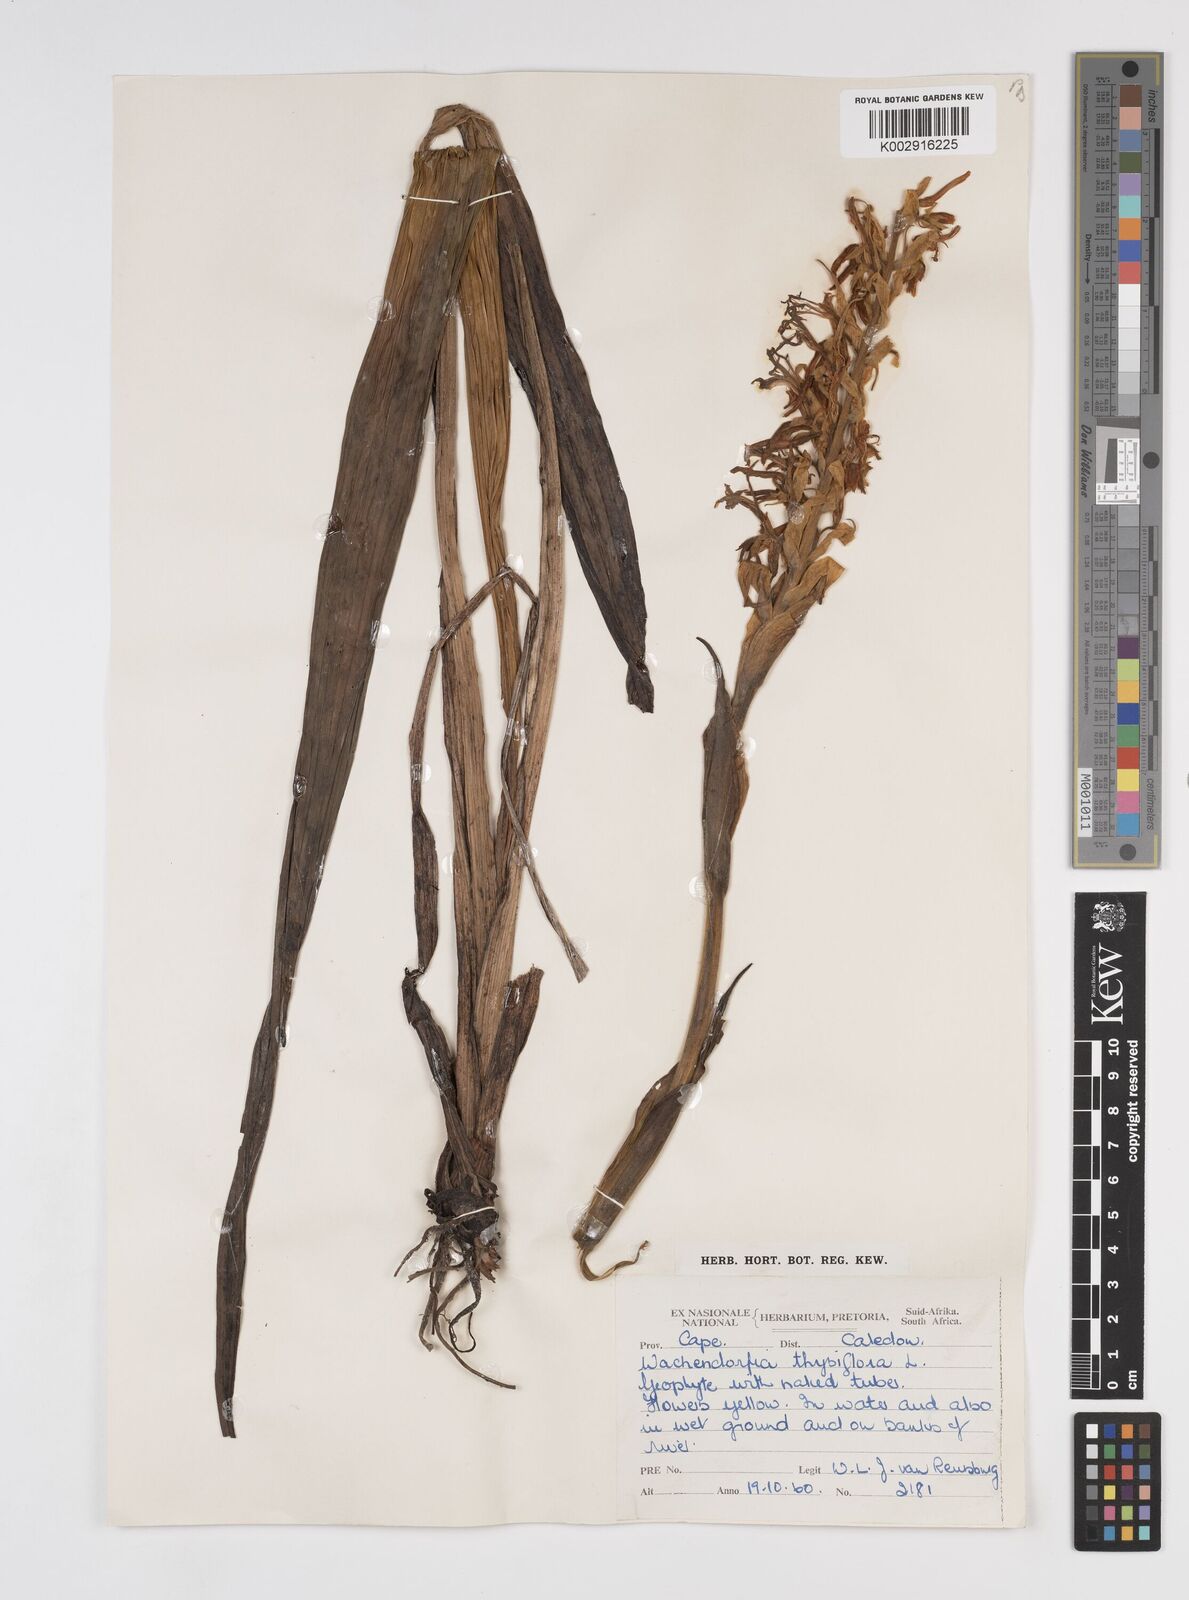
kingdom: Plantae
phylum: Tracheophyta
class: Liliopsida
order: Commelinales
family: Haemodoraceae
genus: Wachendorfia
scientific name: Wachendorfia thyrsiflora
